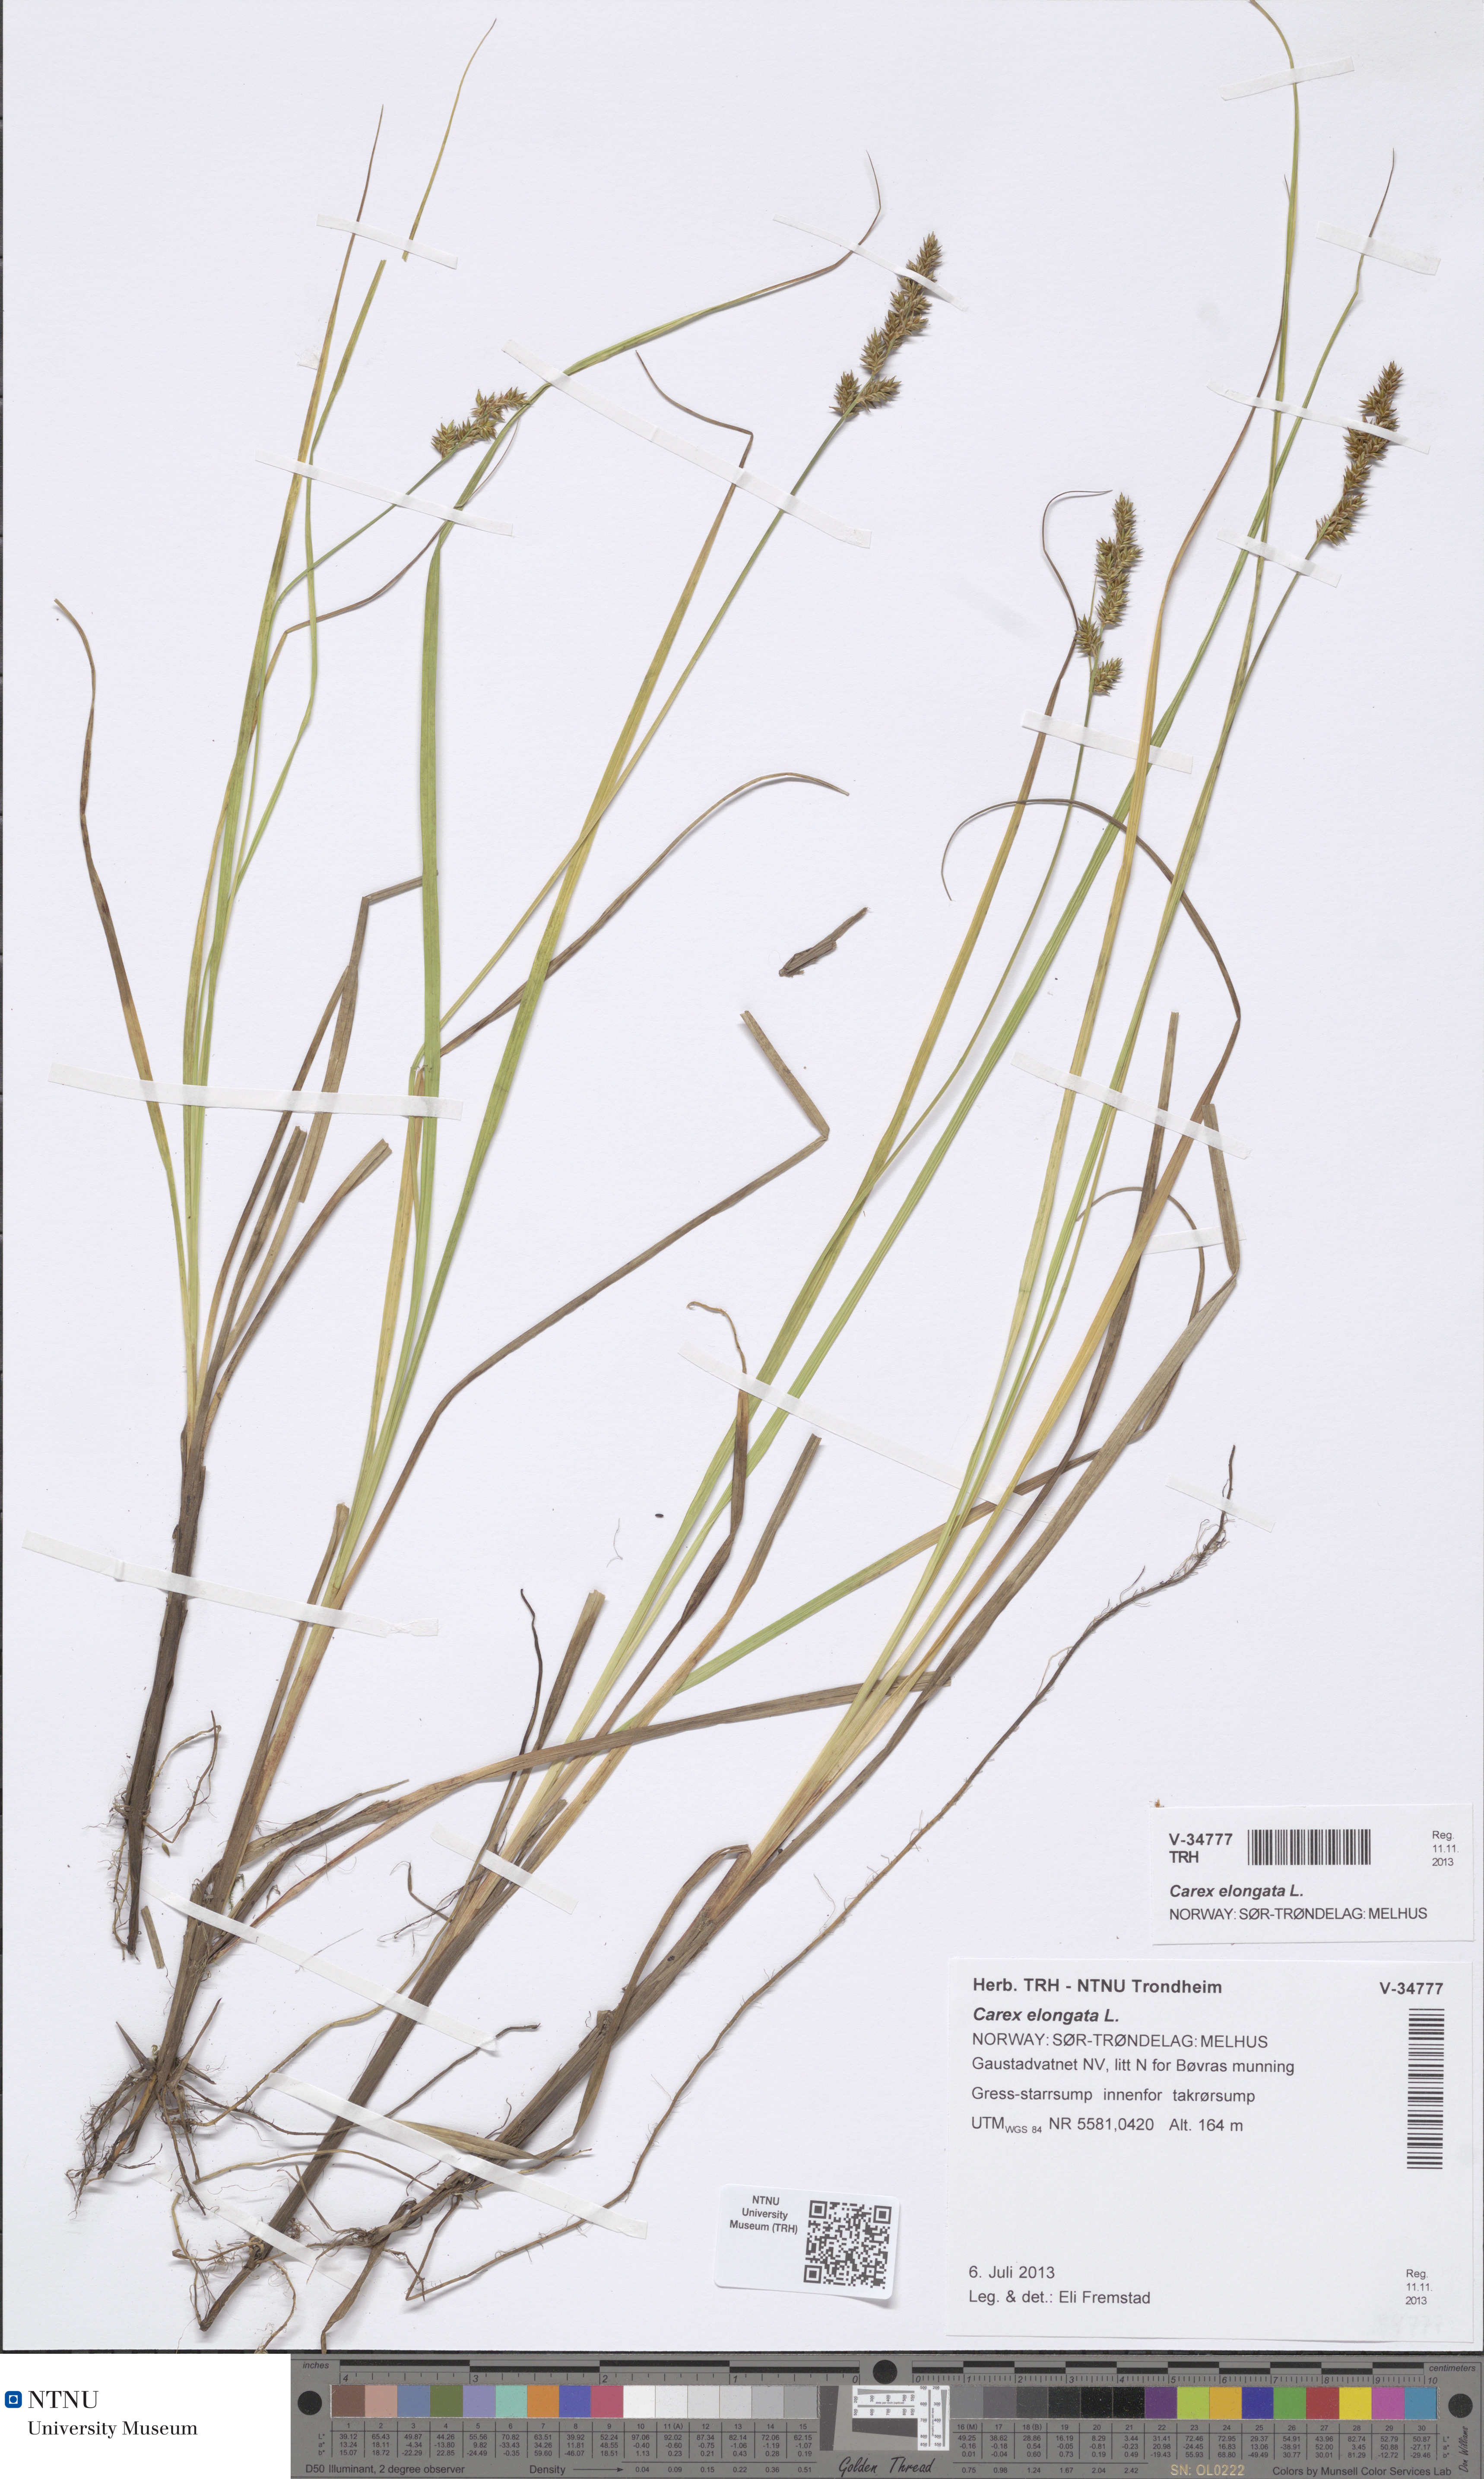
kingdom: Plantae
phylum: Tracheophyta
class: Liliopsida
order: Poales
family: Cyperaceae
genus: Carex
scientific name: Carex elongata
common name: Elongated sedge
